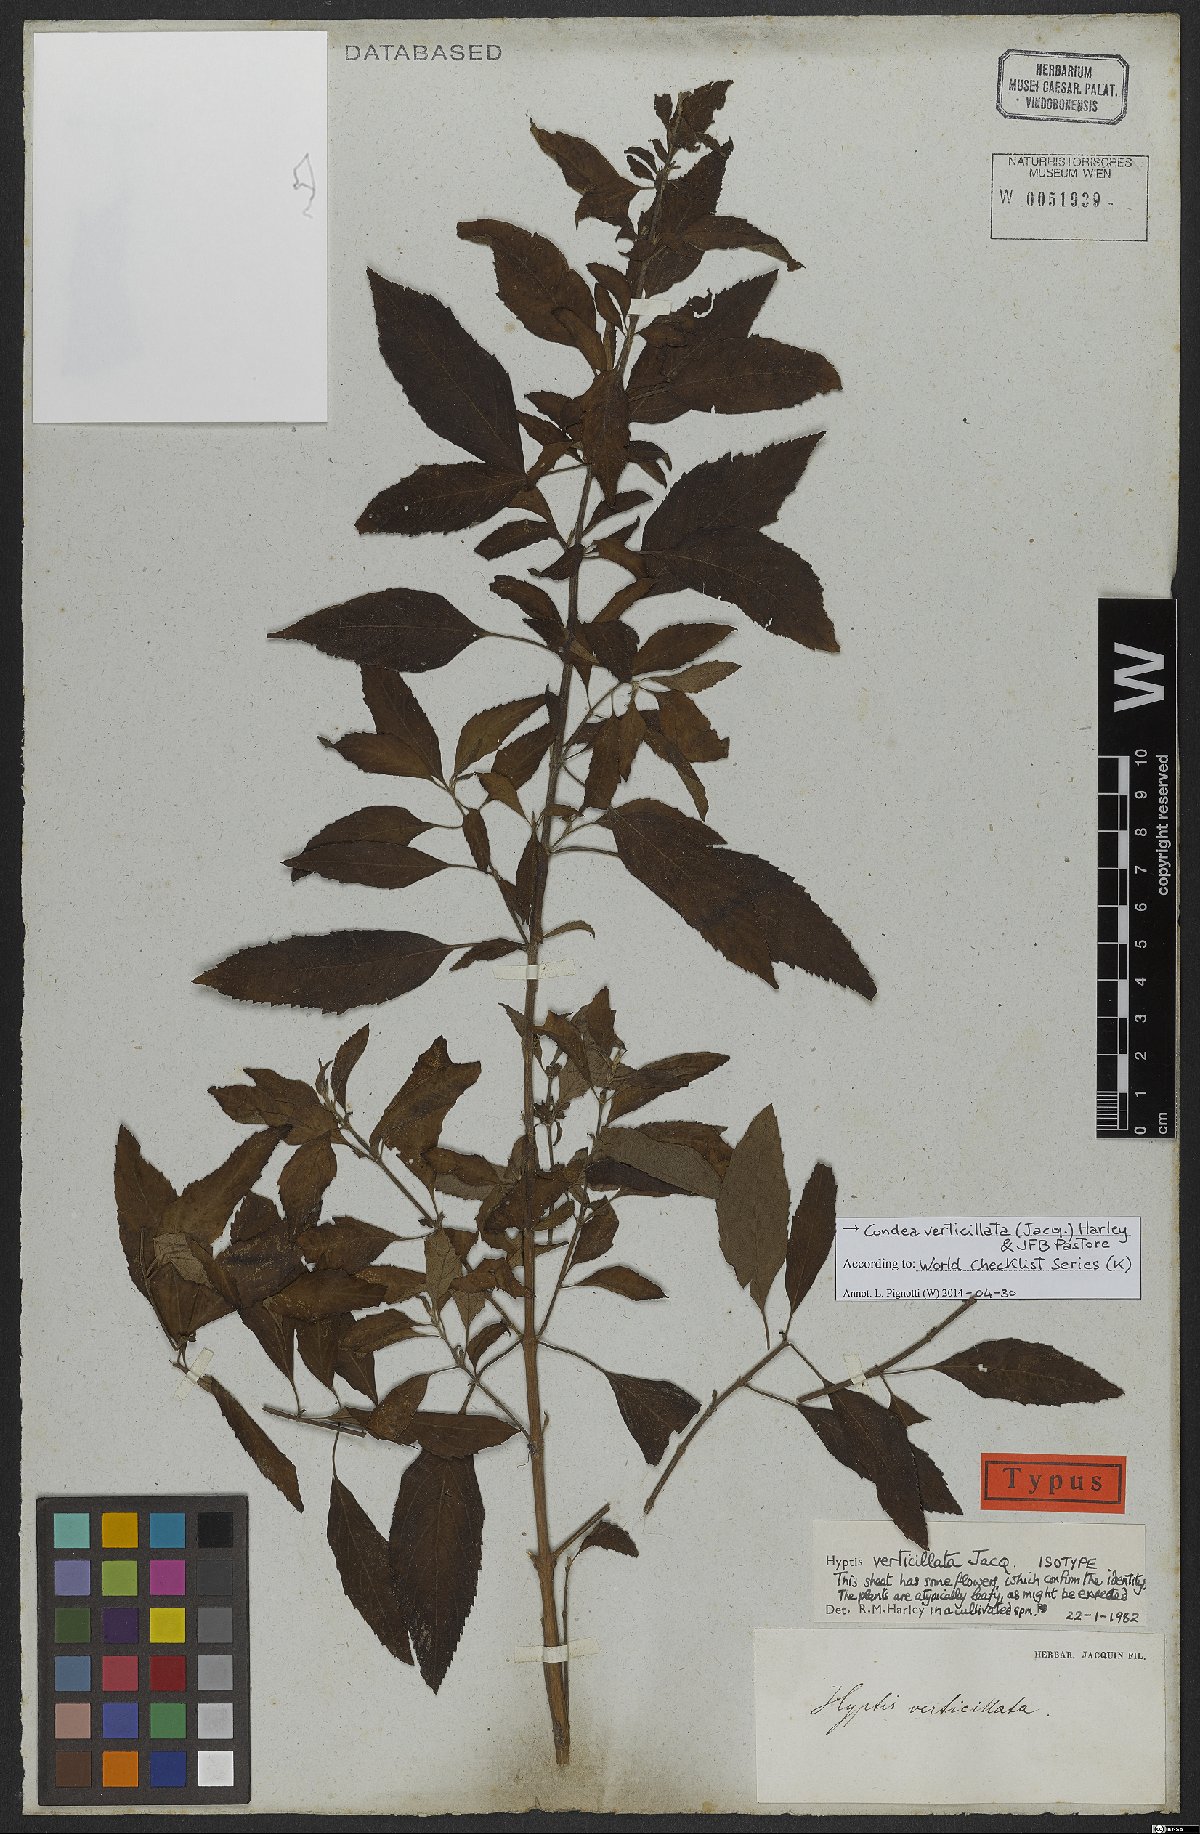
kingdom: Plantae
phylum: Tracheophyta
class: Magnoliopsida
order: Lamiales
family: Lamiaceae
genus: Condea
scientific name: Condea verticillata
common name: John charles
